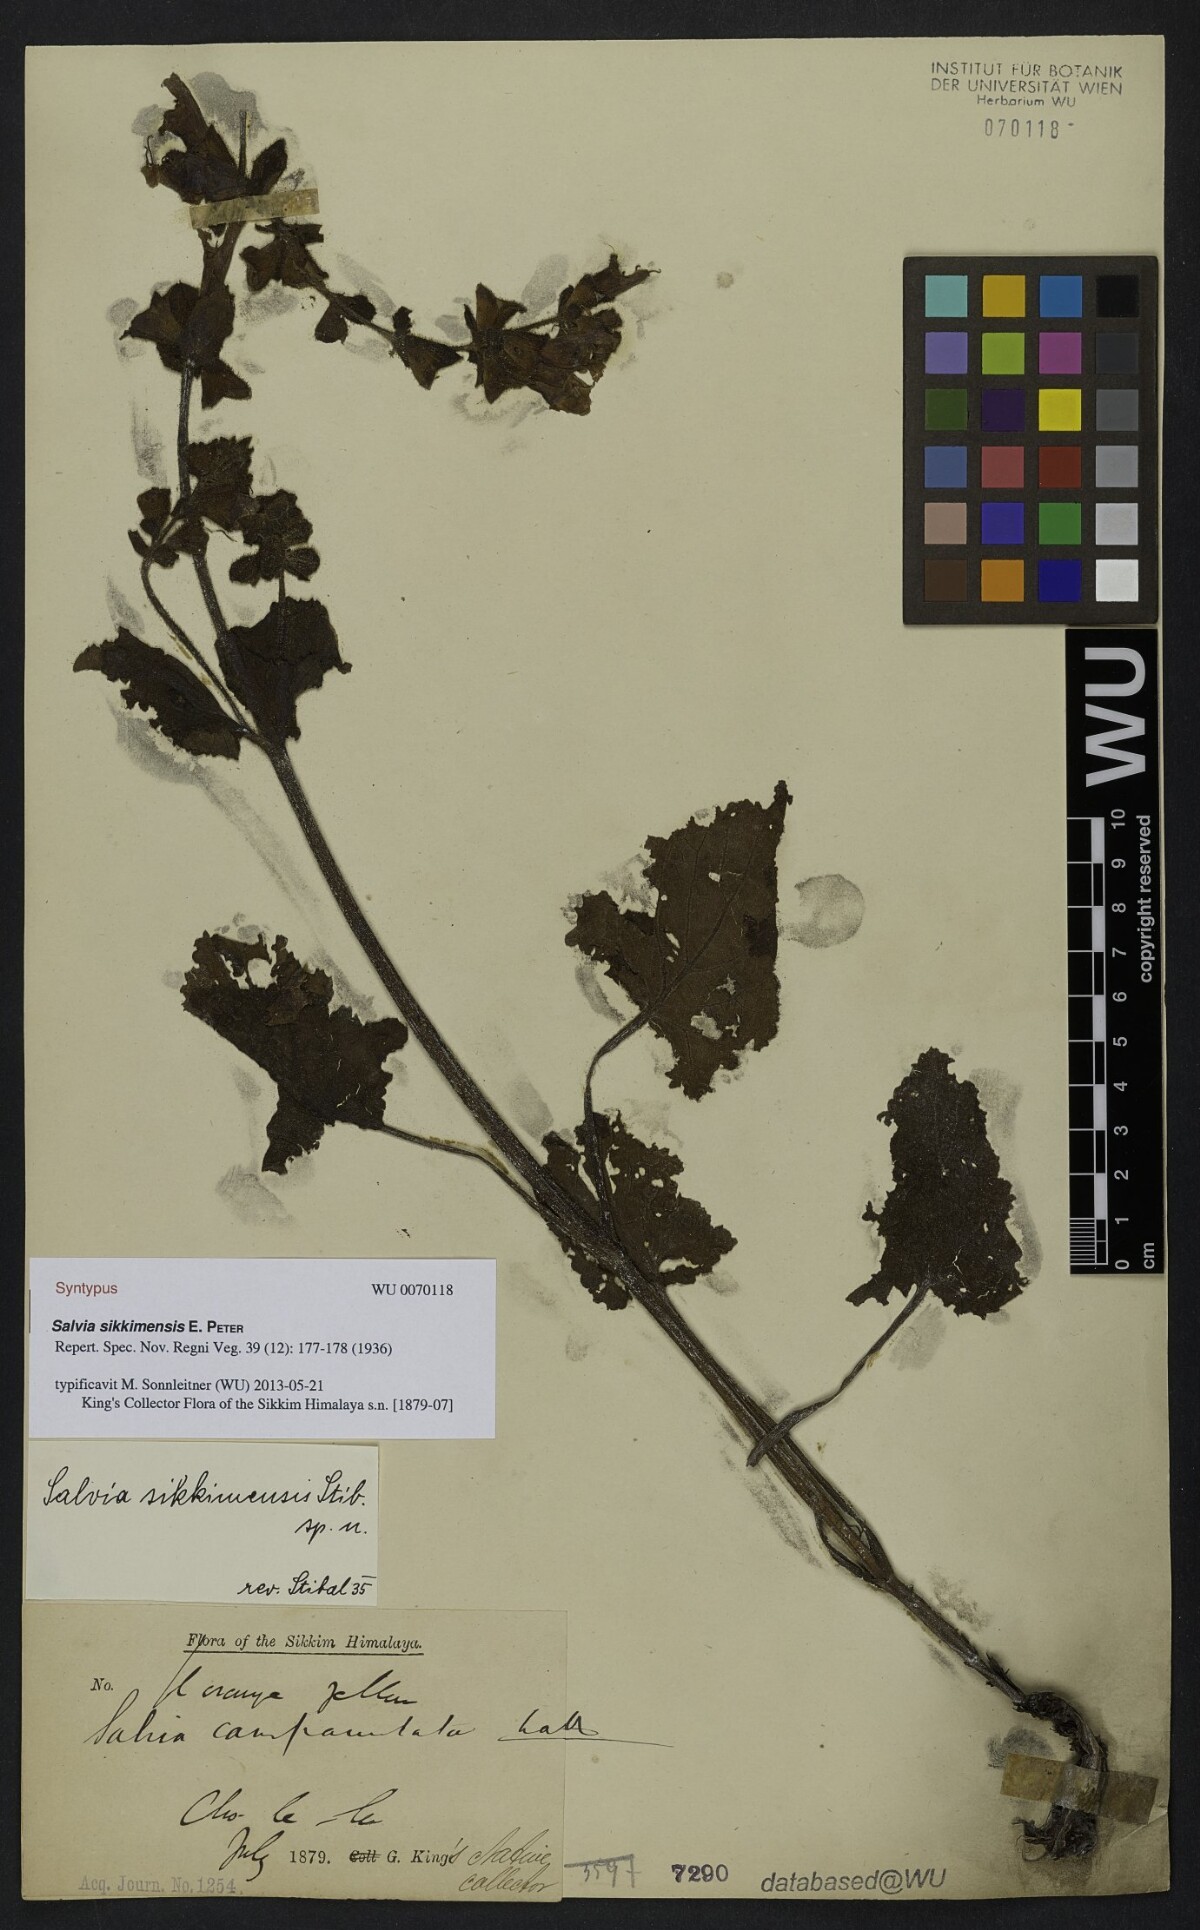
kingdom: Plantae
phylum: Tracheophyta
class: Magnoliopsida
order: Lamiales
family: Lamiaceae
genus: Salvia
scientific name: Salvia sikkimensis
